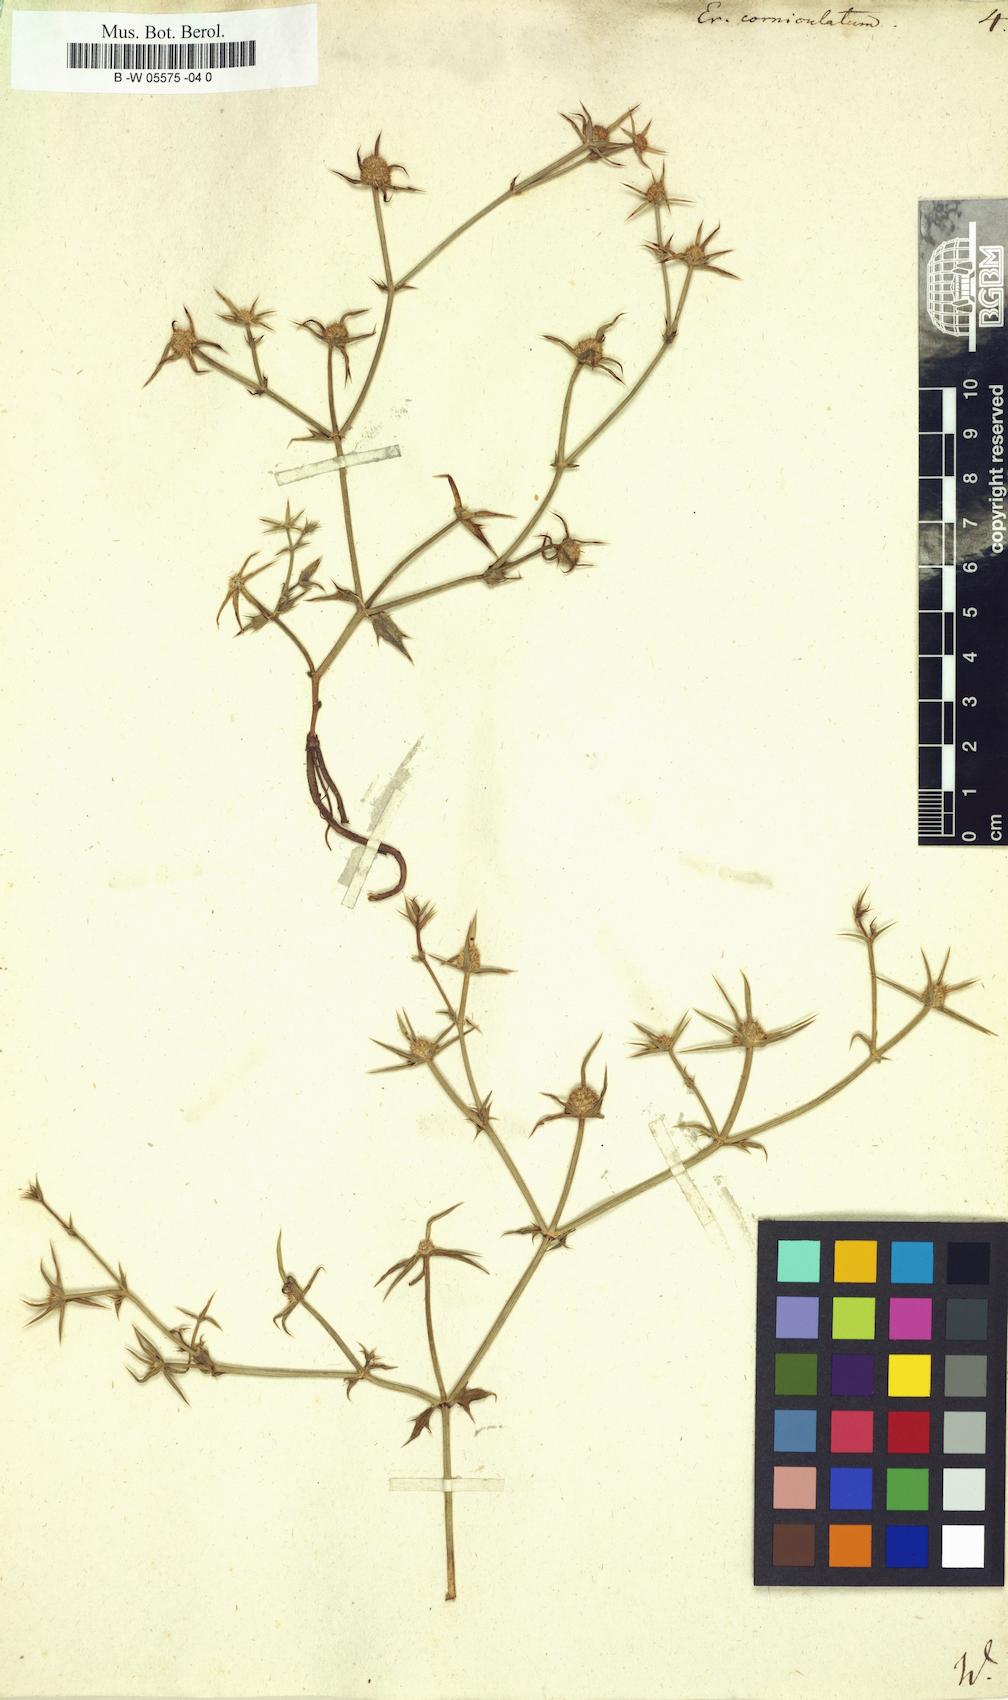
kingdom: Plantae
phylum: Tracheophyta
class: Magnoliopsida
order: Apiales
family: Apiaceae
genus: Eryngium
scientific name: Eryngium corniculatum
